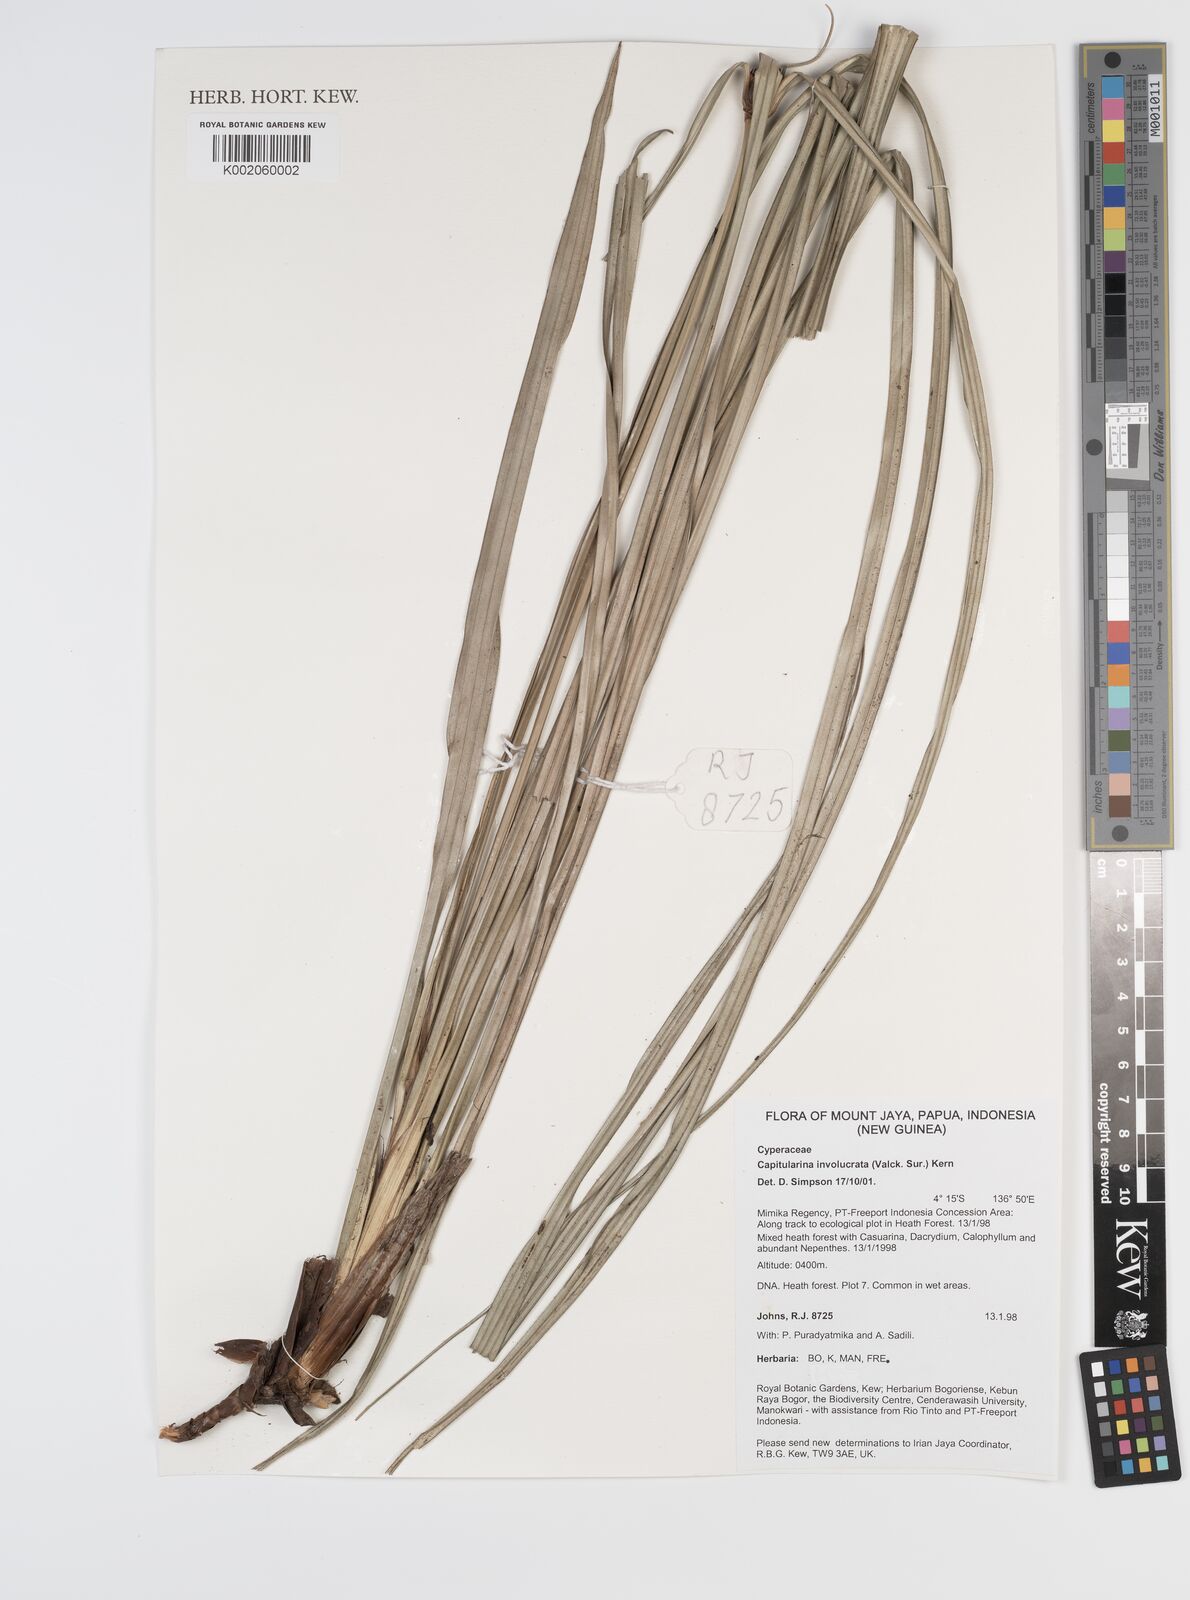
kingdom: Plantae
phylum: Tracheophyta
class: Liliopsida
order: Poales
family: Cyperaceae
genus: Capitularina
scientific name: Capitularina involucrata
